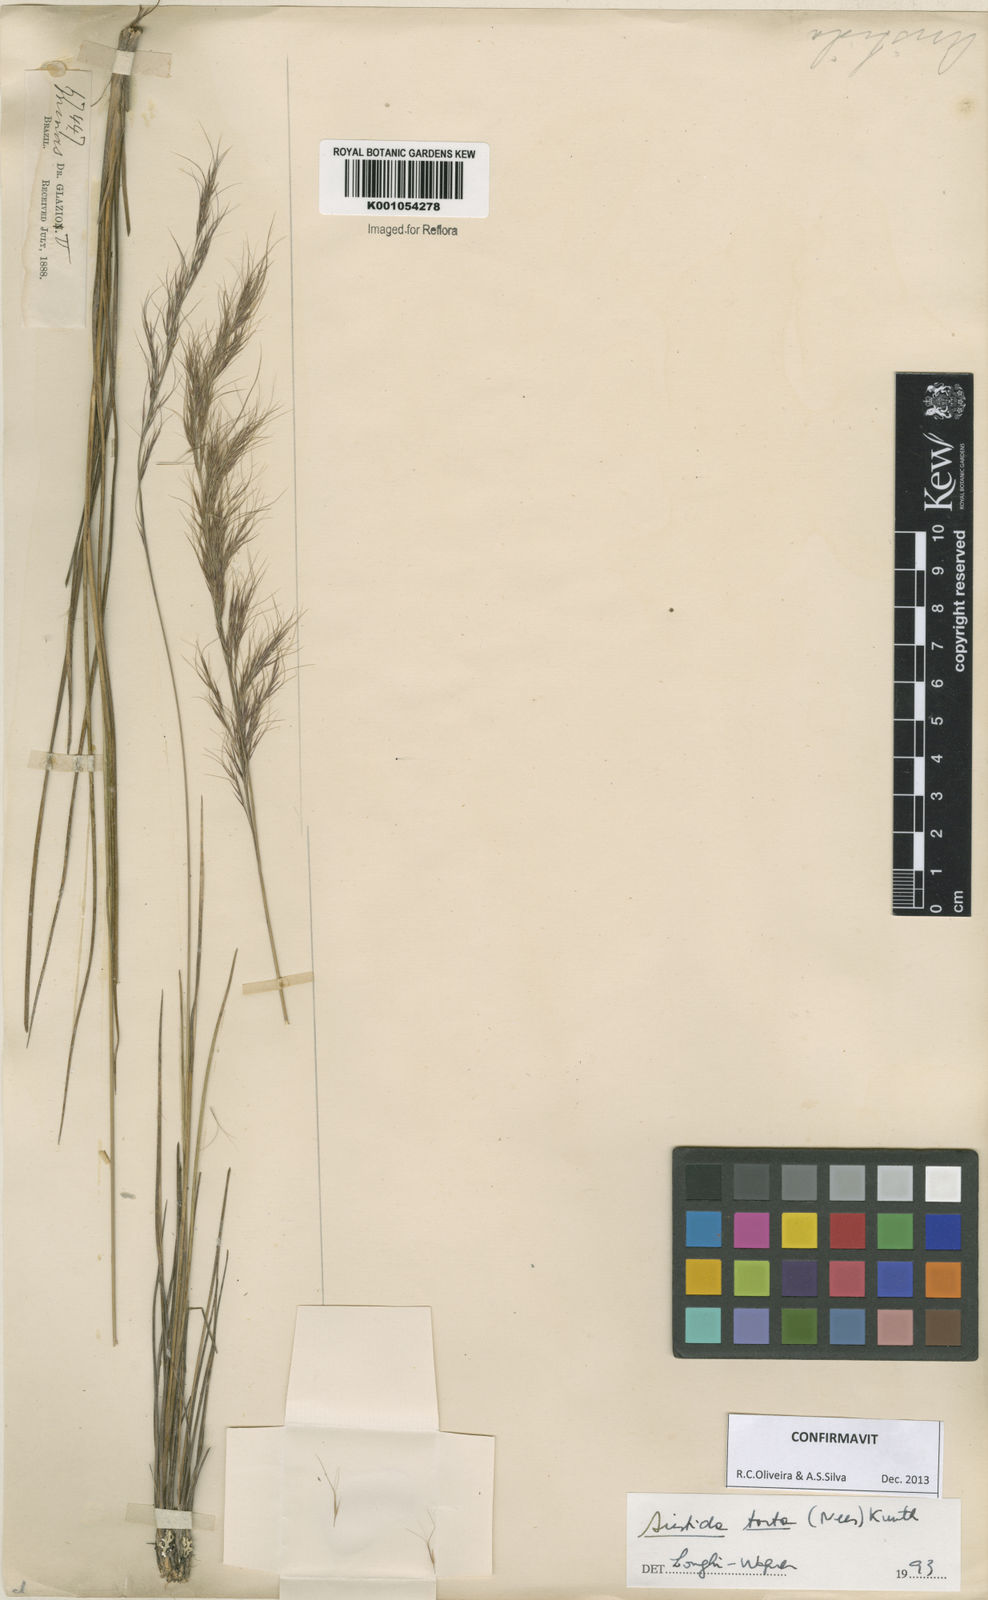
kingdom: Plantae
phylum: Tracheophyta
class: Liliopsida
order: Poales
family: Poaceae
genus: Aristida
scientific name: Aristida torta
